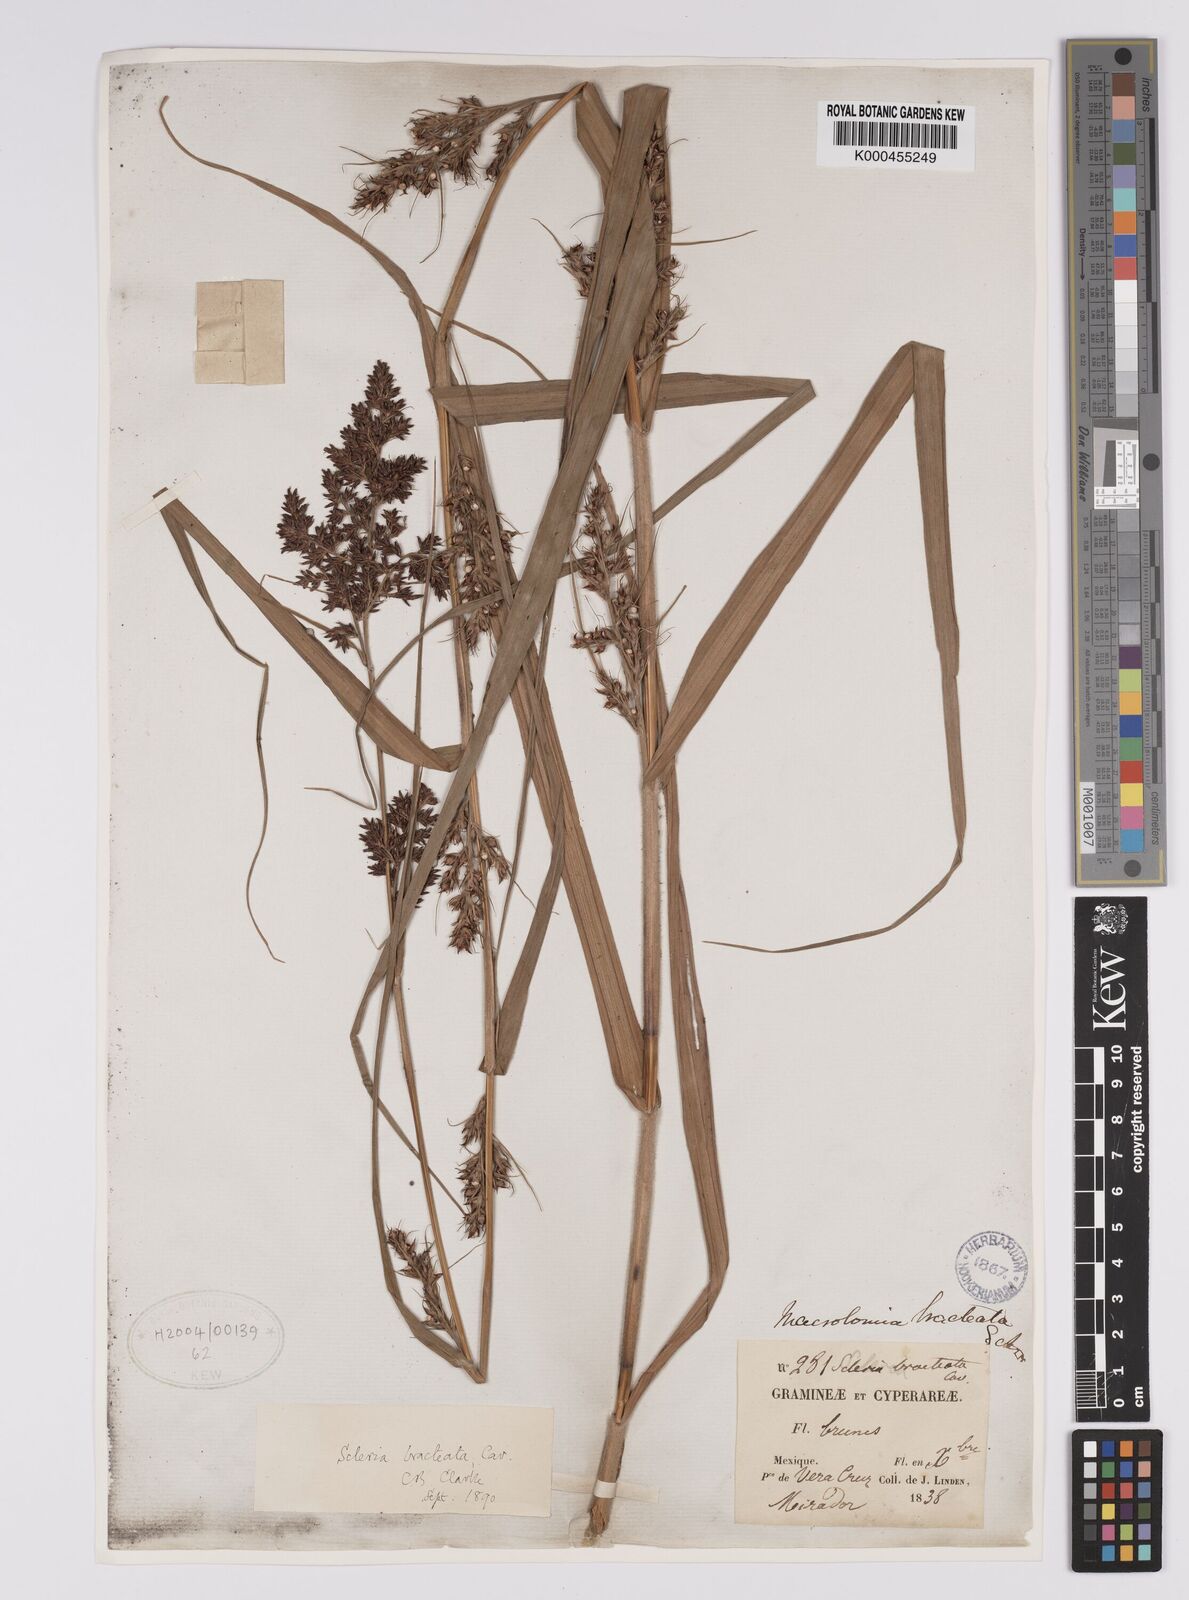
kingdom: Plantae
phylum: Tracheophyta
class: Liliopsida
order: Poales
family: Cyperaceae
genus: Scleria
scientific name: Scleria bracteata
